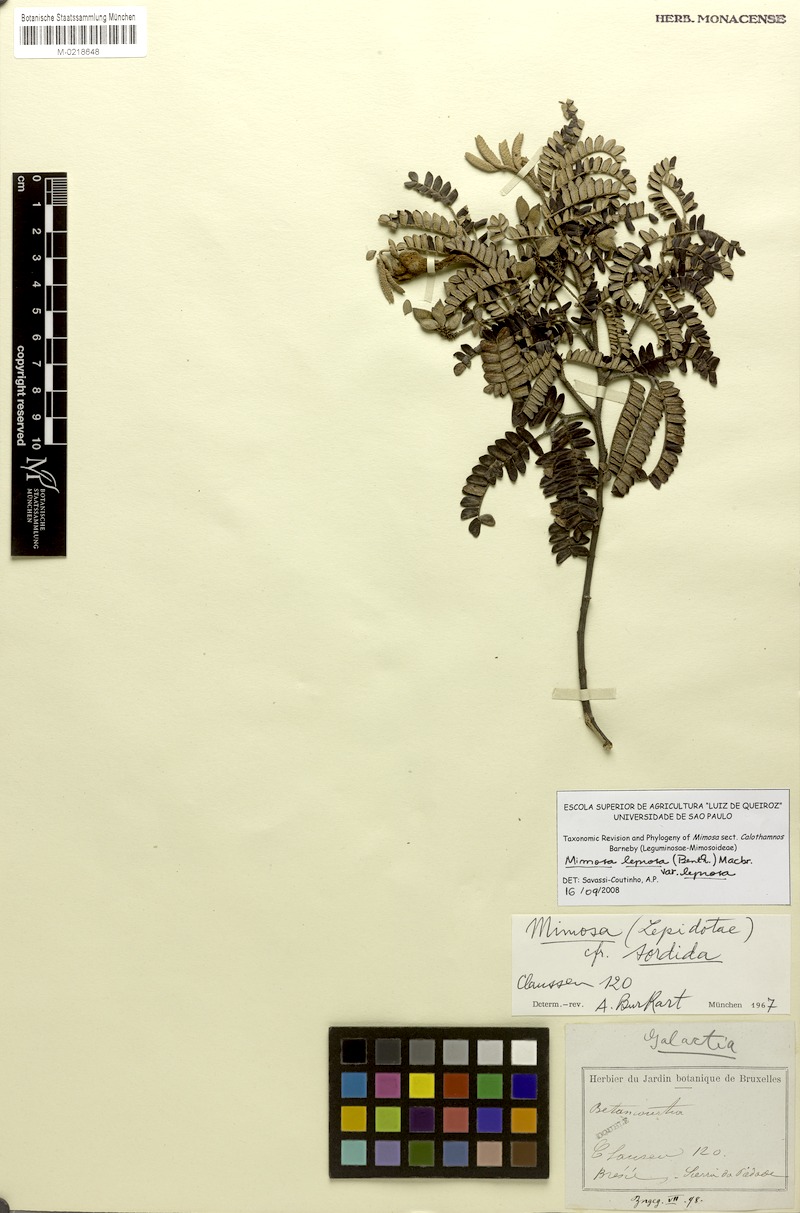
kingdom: Plantae
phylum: Tracheophyta
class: Magnoliopsida
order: Fabales
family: Fabaceae
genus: Mimosa
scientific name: Mimosa leprosa
